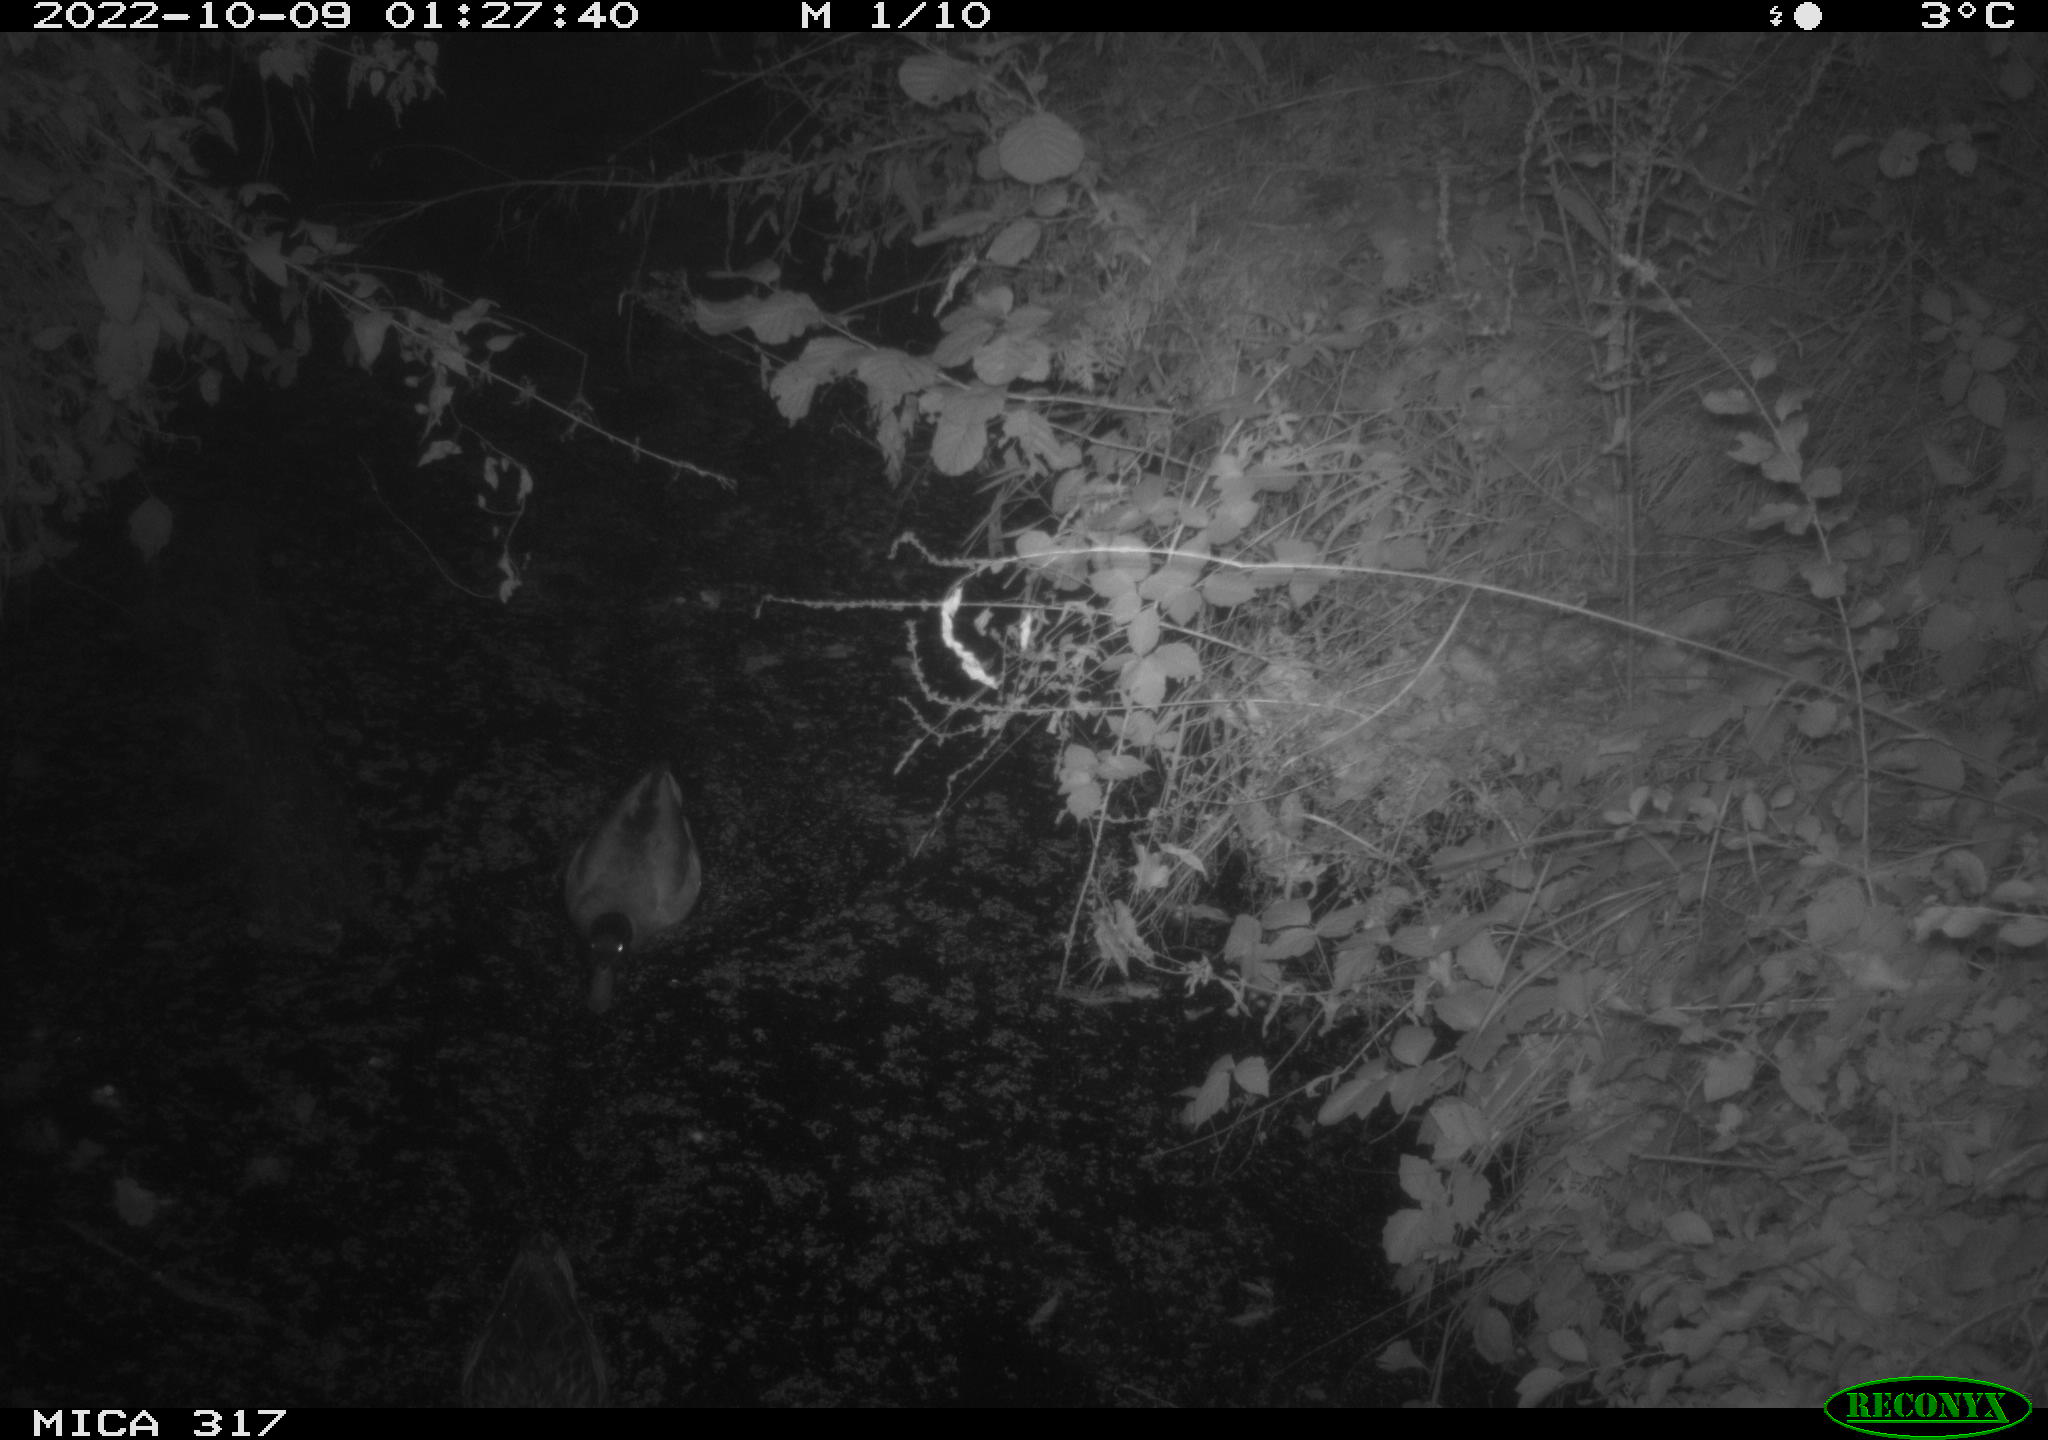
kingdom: Animalia
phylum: Chordata
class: Aves
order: Anseriformes
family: Anatidae
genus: Anas
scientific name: Anas
